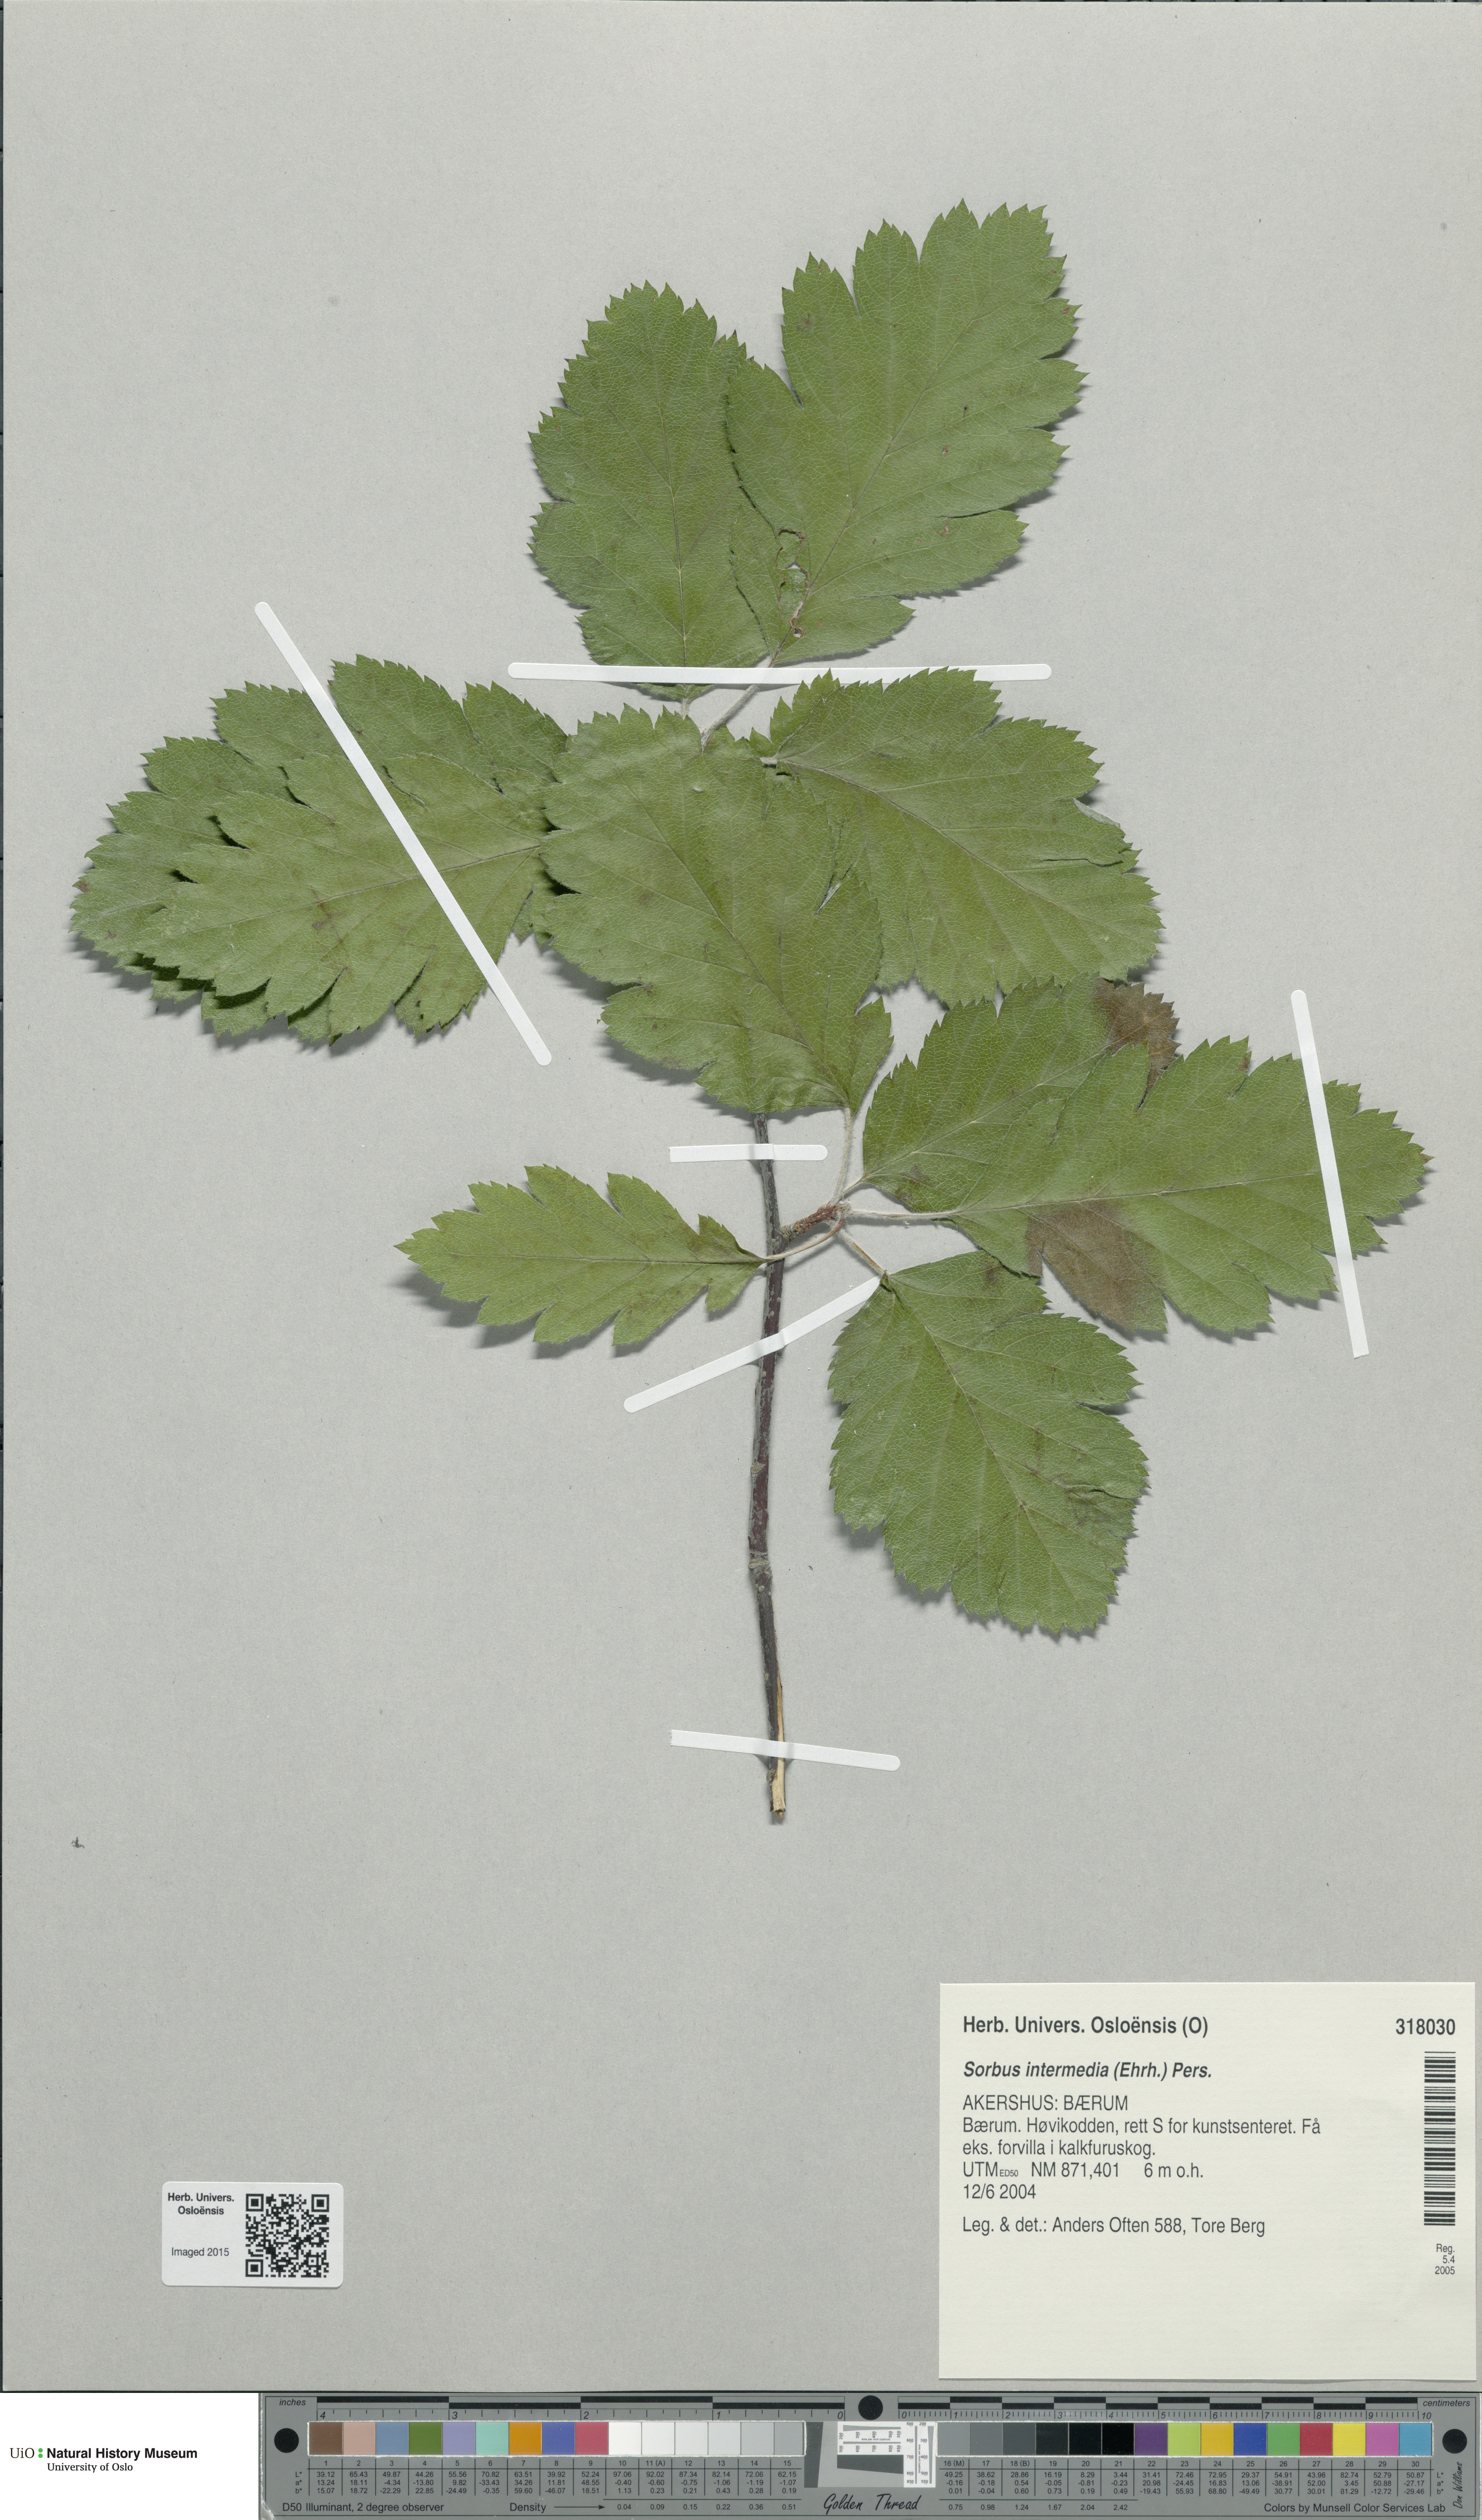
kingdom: Plantae
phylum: Tracheophyta
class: Magnoliopsida
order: Rosales
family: Rosaceae
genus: Scandosorbus
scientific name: Scandosorbus intermedia
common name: Swedish whitebeam
